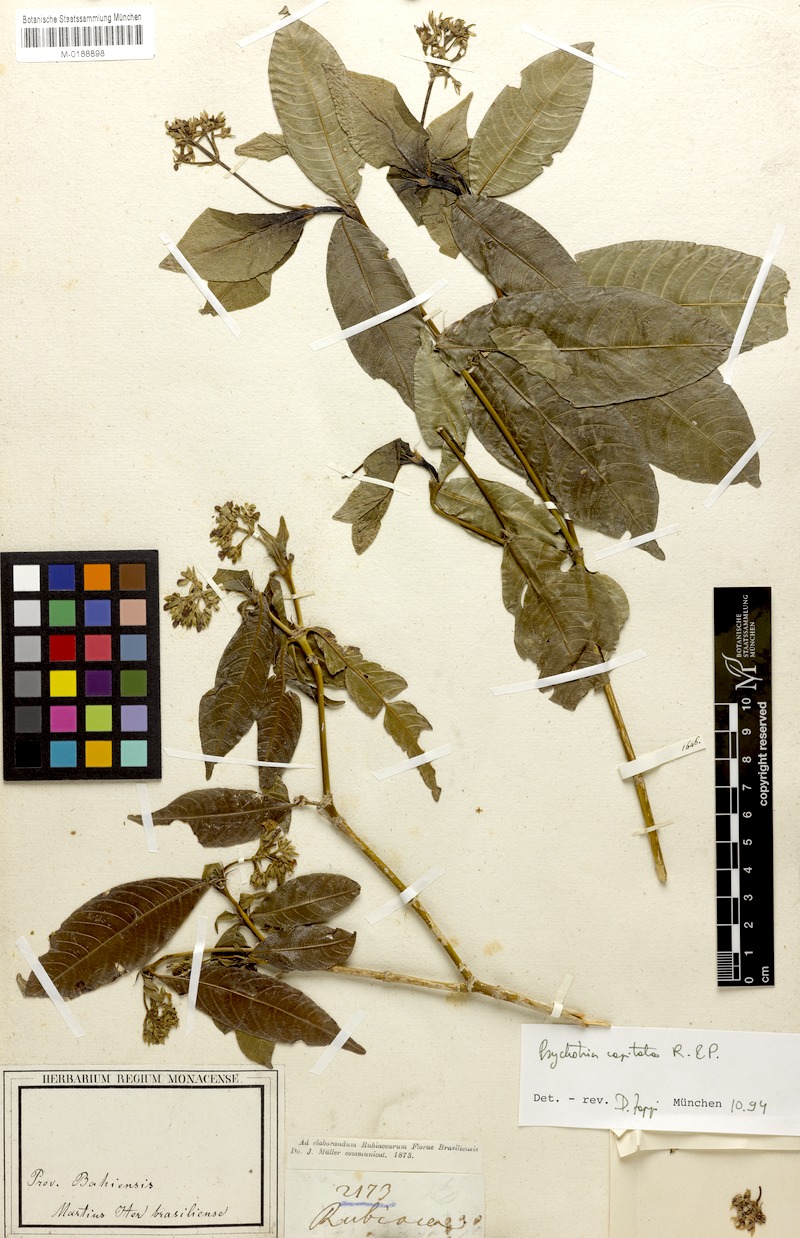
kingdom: Plantae
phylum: Tracheophyta
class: Magnoliopsida
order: Gentianales
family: Rubiaceae
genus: Palicourea
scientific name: Palicourea violacea
